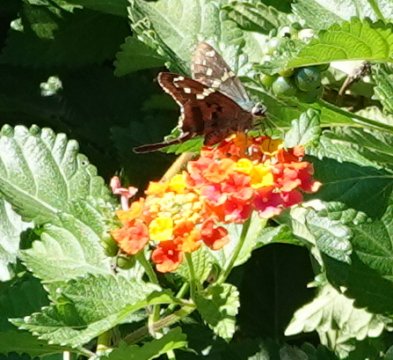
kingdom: Animalia
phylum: Arthropoda
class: Insecta
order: Lepidoptera
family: Hesperiidae
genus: Urbanus
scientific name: Urbanus proteus
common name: Long-tailed Skipper
